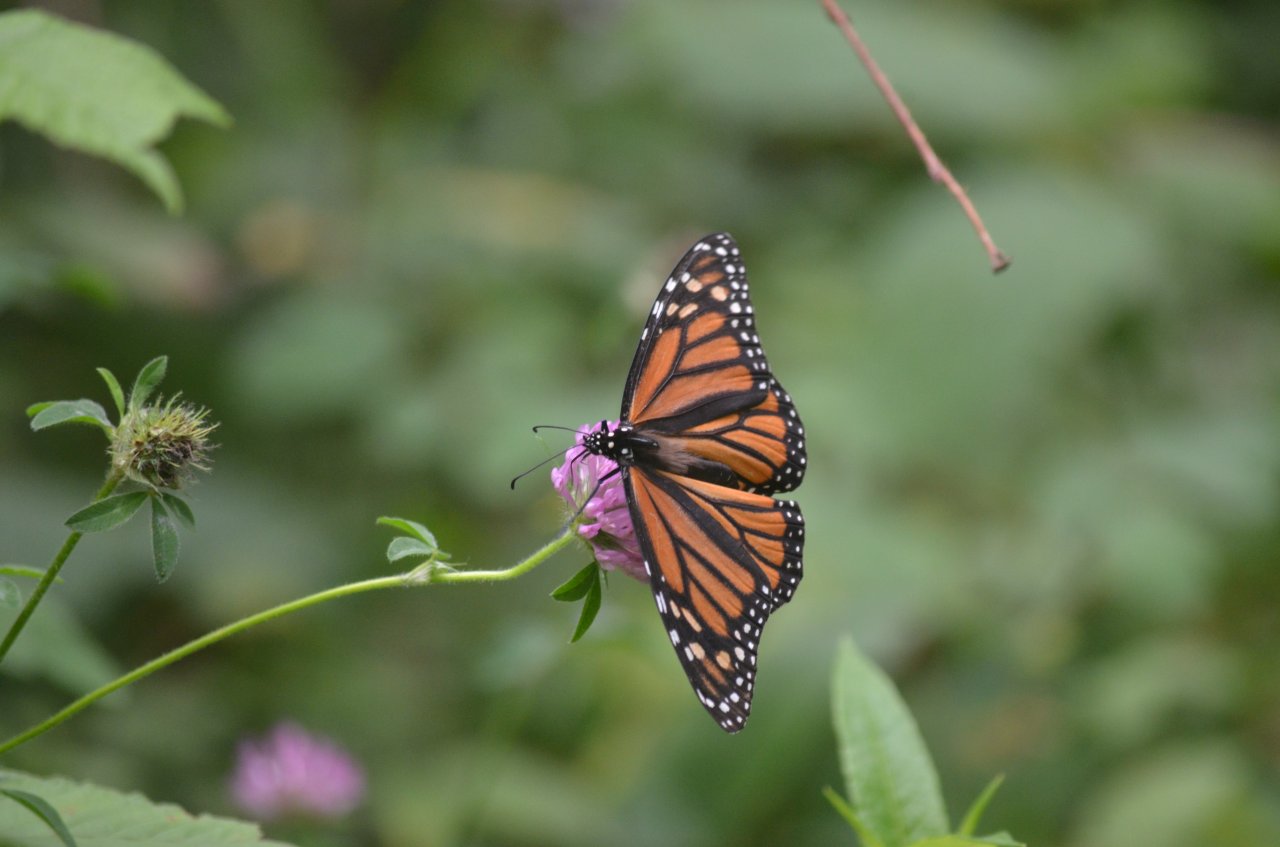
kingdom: Animalia
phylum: Arthropoda
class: Insecta
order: Lepidoptera
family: Nymphalidae
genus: Danaus
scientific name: Danaus plexippus
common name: Monarch
